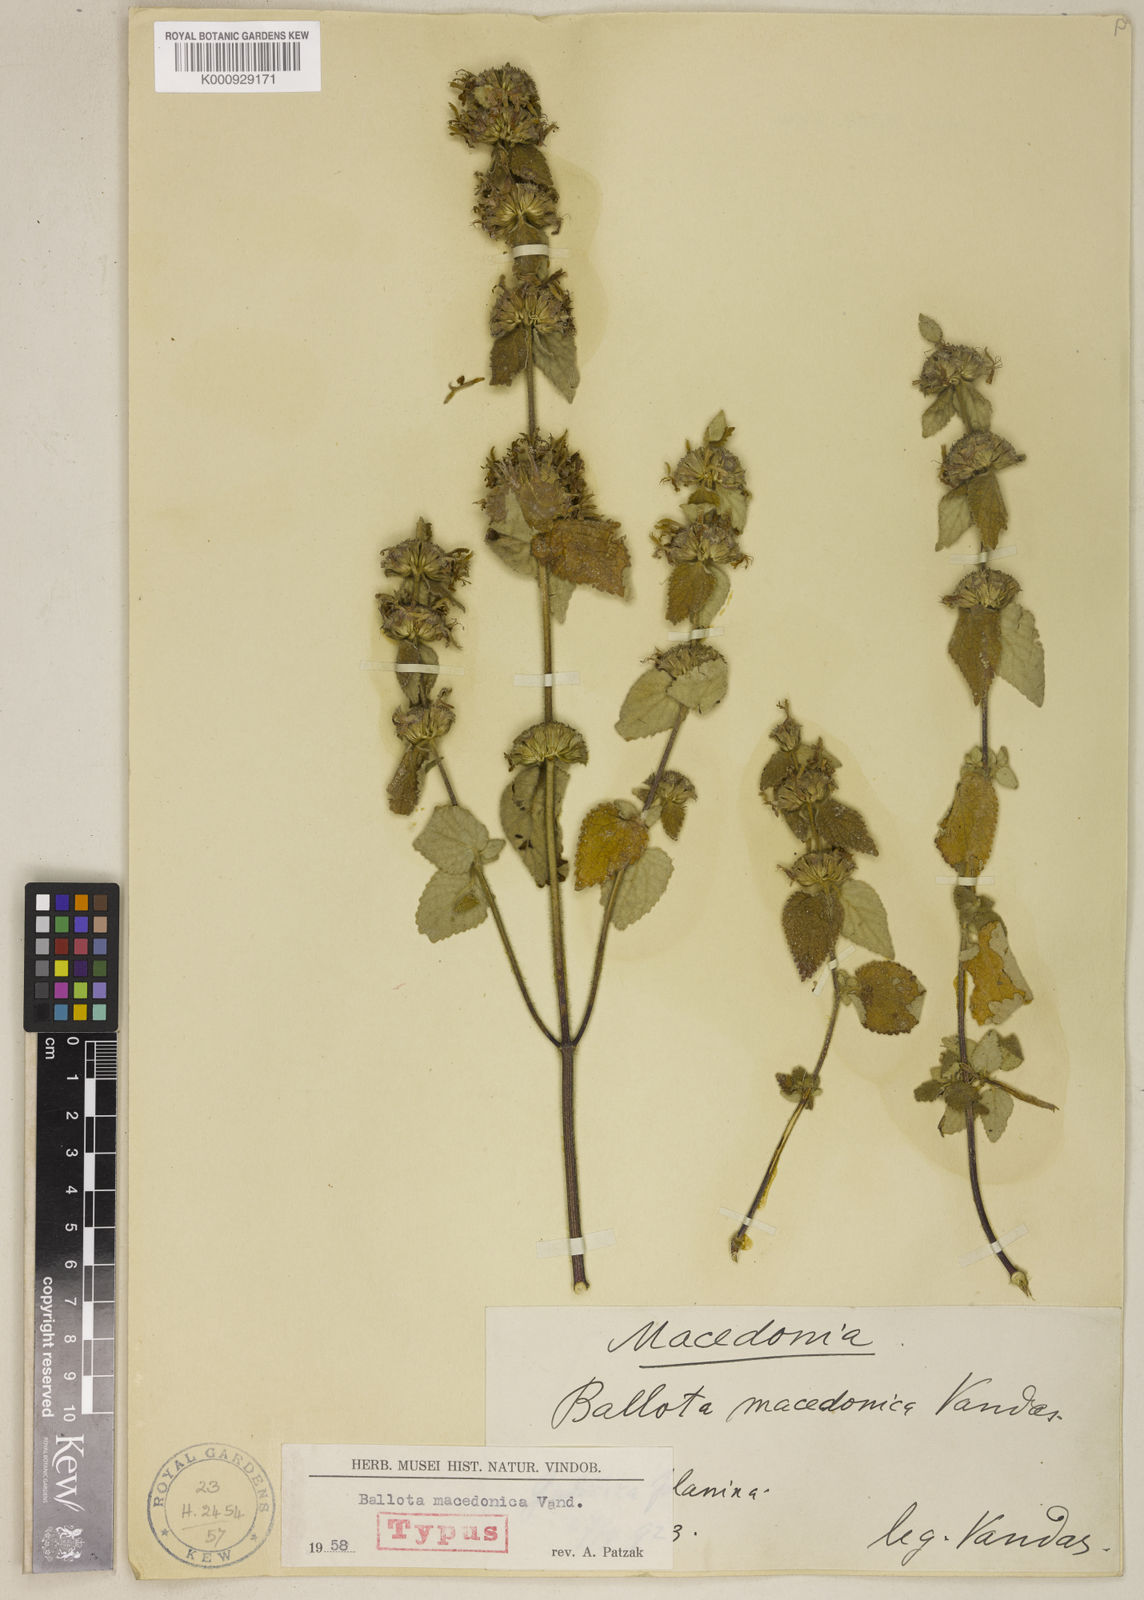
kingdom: Plantae
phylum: Tracheophyta
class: Magnoliopsida
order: Lamiales
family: Lamiaceae
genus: Pseudodictamnus
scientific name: Pseudodictamnus macedonicus
